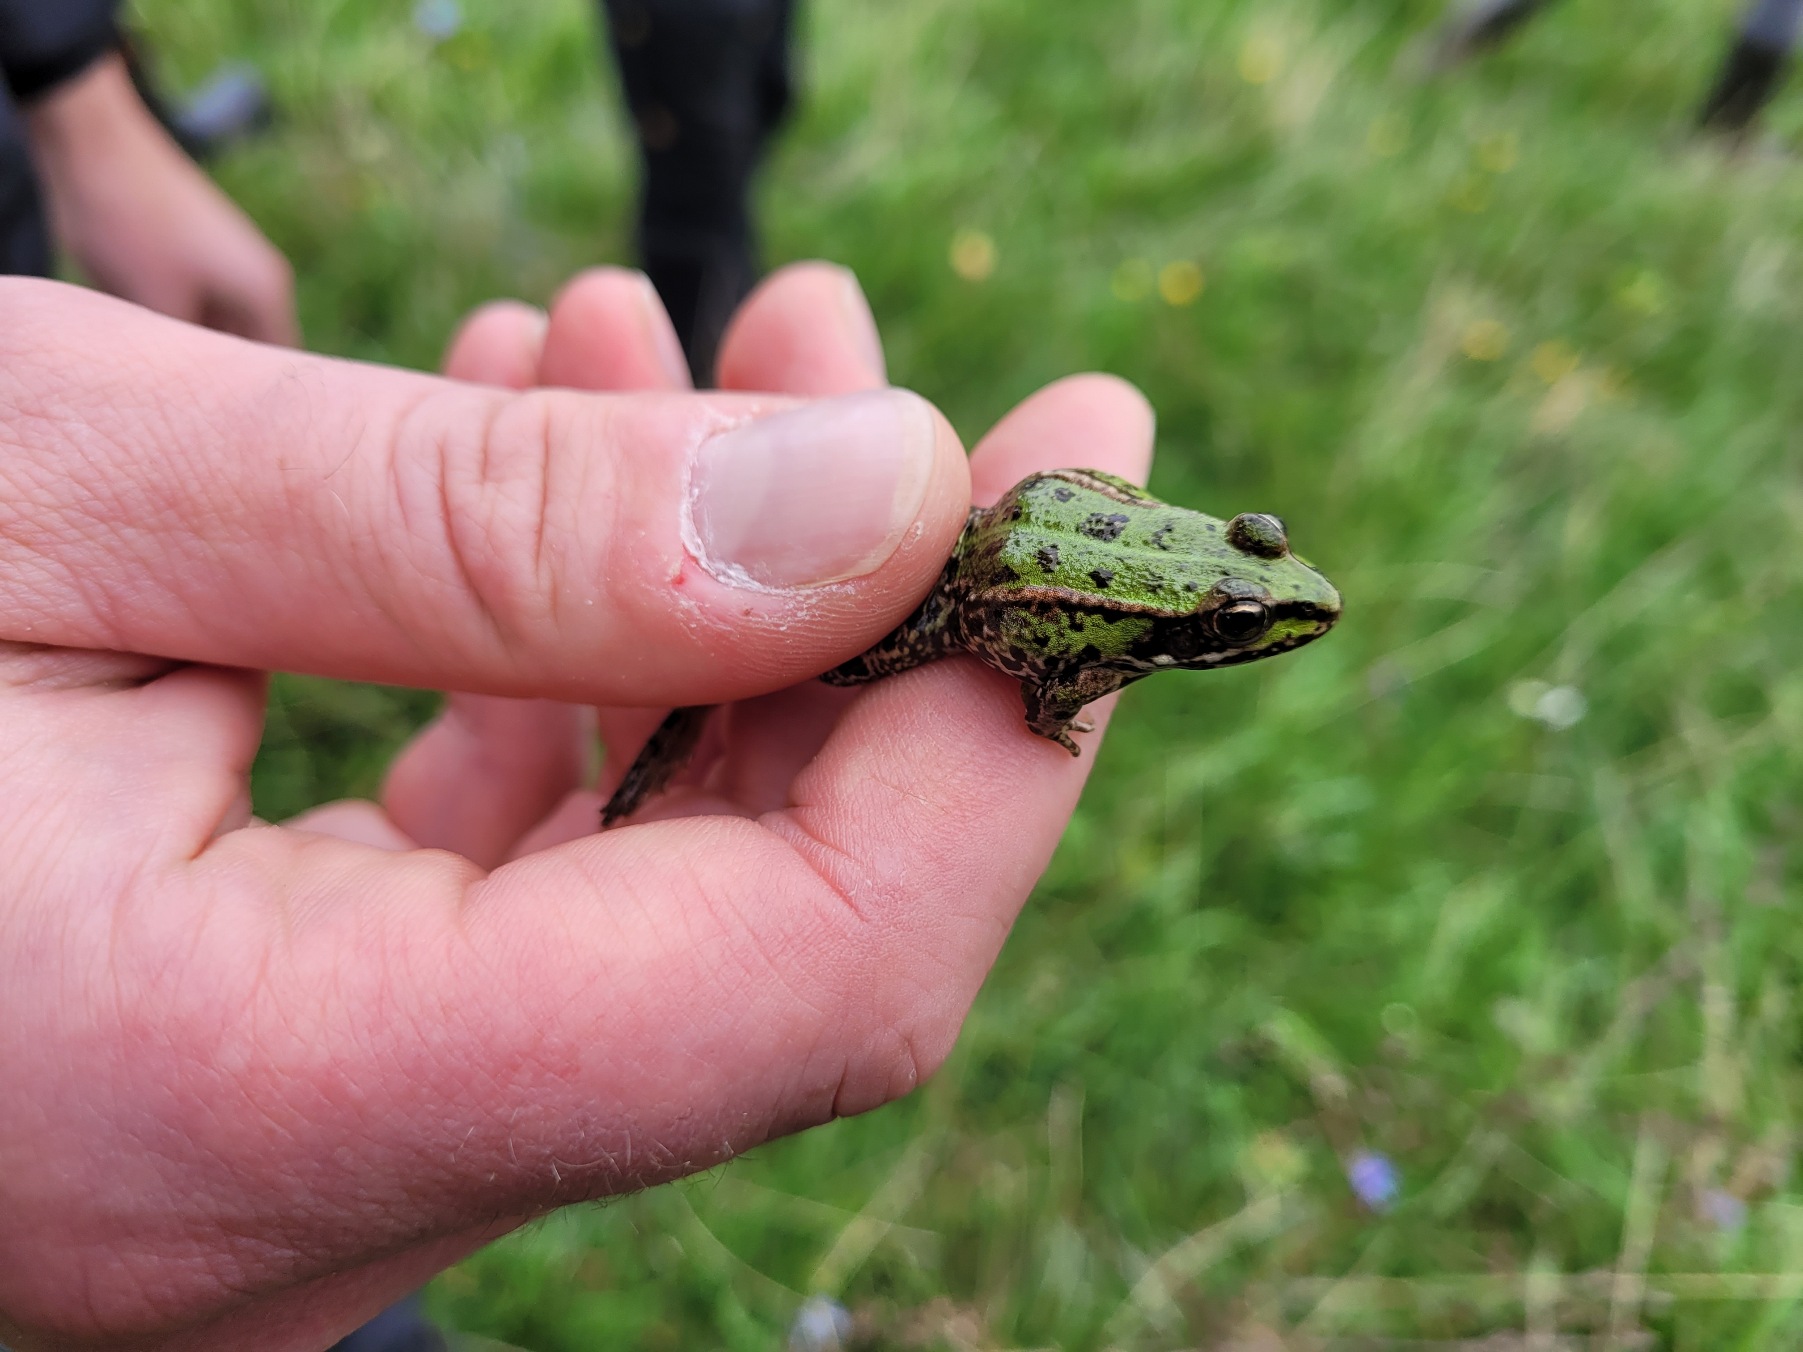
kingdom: Animalia
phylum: Chordata
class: Amphibia
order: Anura
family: Ranidae
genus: Pelophylax
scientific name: Pelophylax lessonae
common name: Grøn frø
